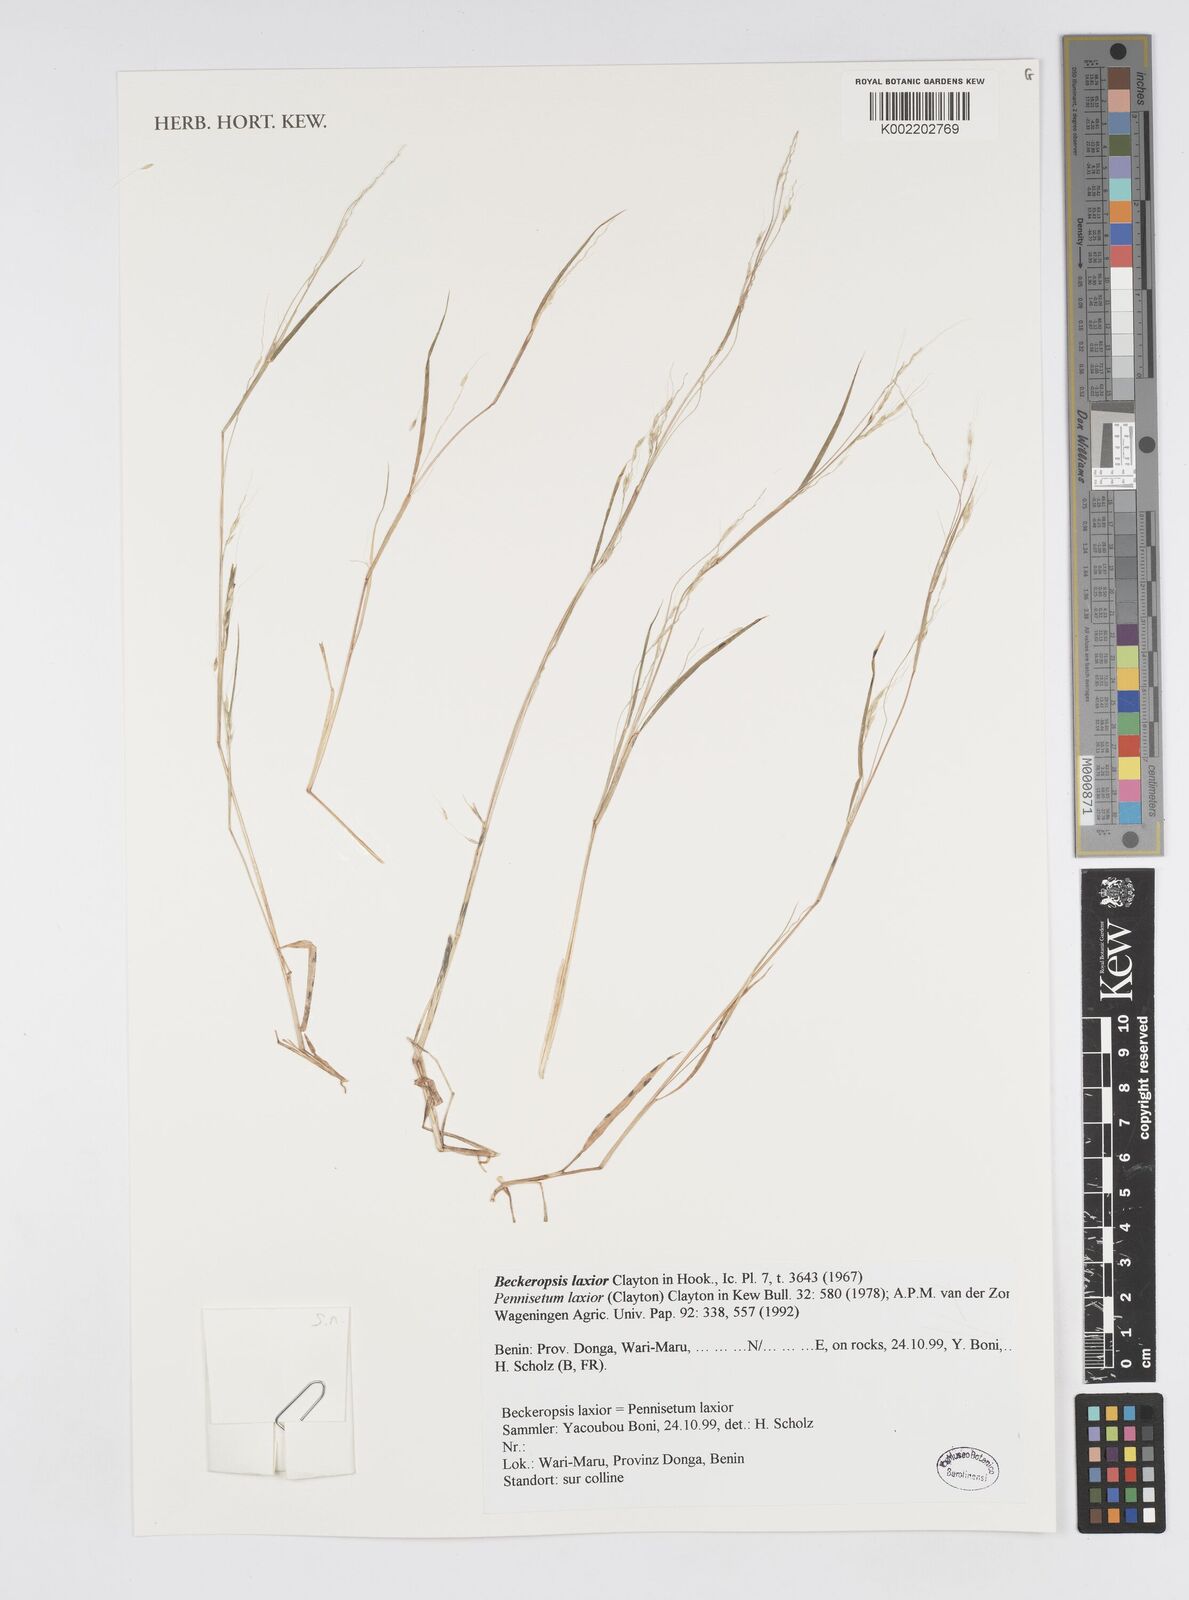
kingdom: Plantae
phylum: Tracheophyta
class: Liliopsida
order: Poales
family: Poaceae
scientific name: Poaceae
